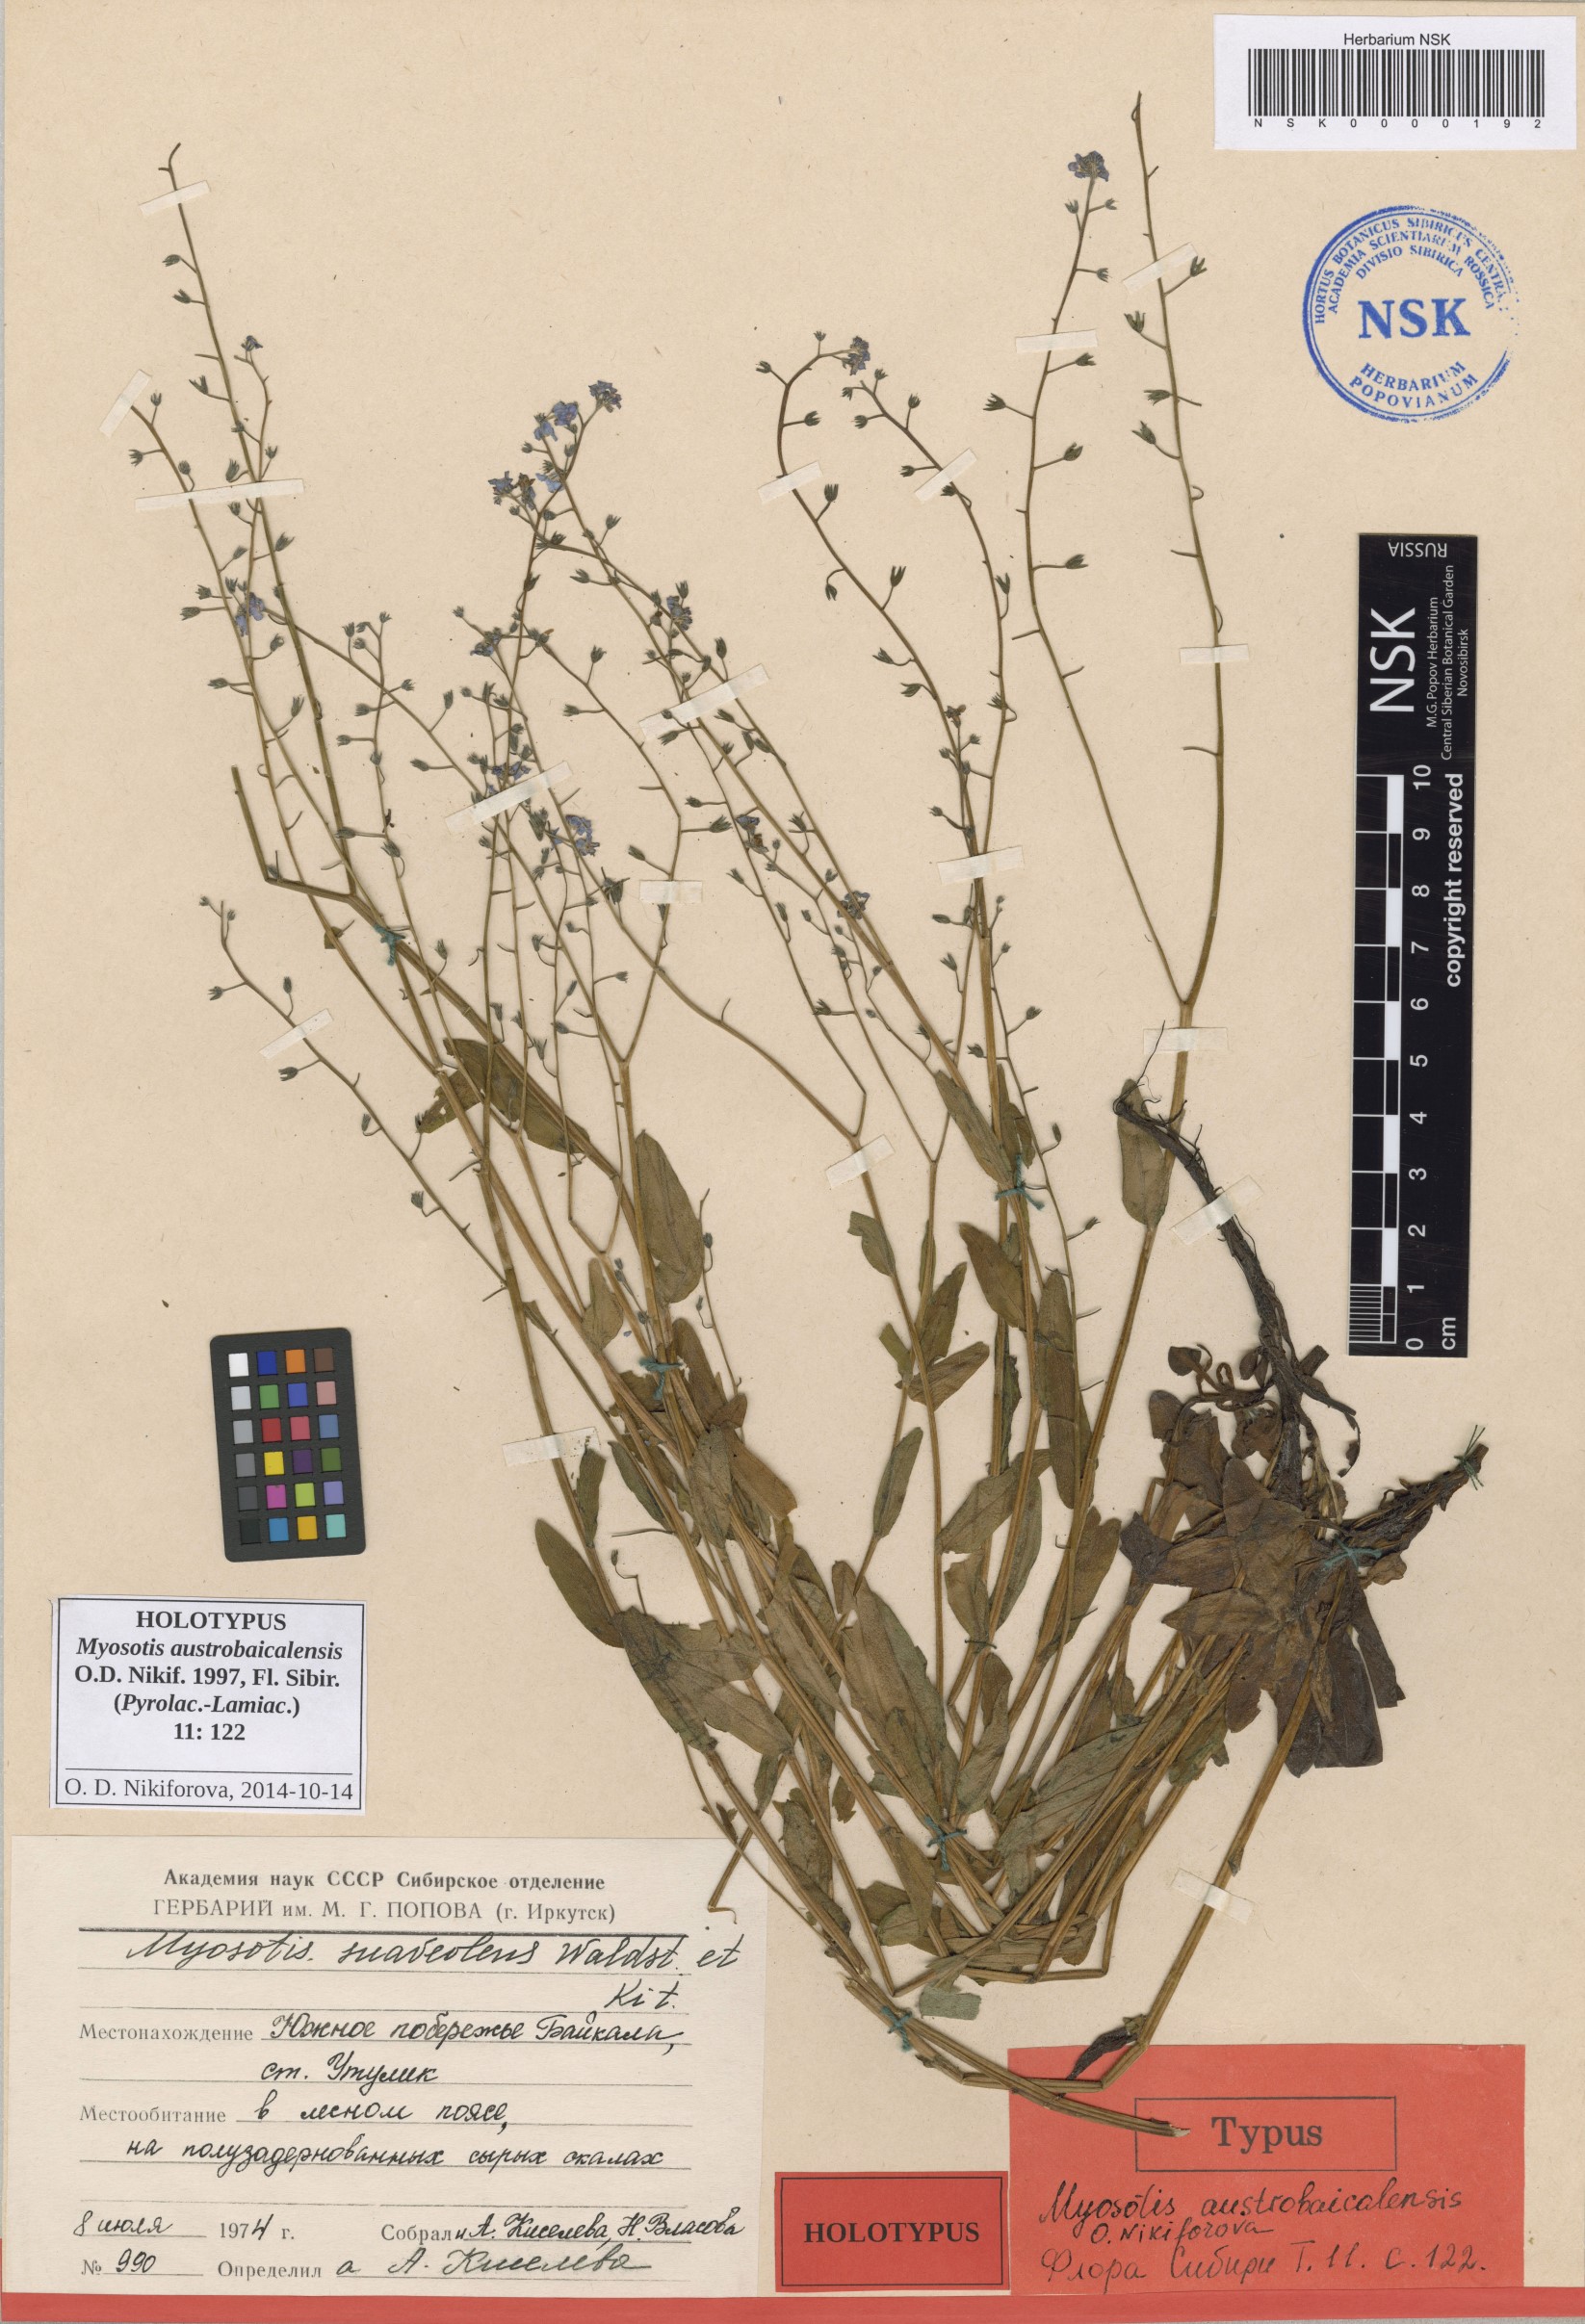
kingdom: Plantae
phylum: Tracheophyta
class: Magnoliopsida
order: Boraginales
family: Boraginaceae
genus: Myosotis
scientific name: Myosotis sajanensis
